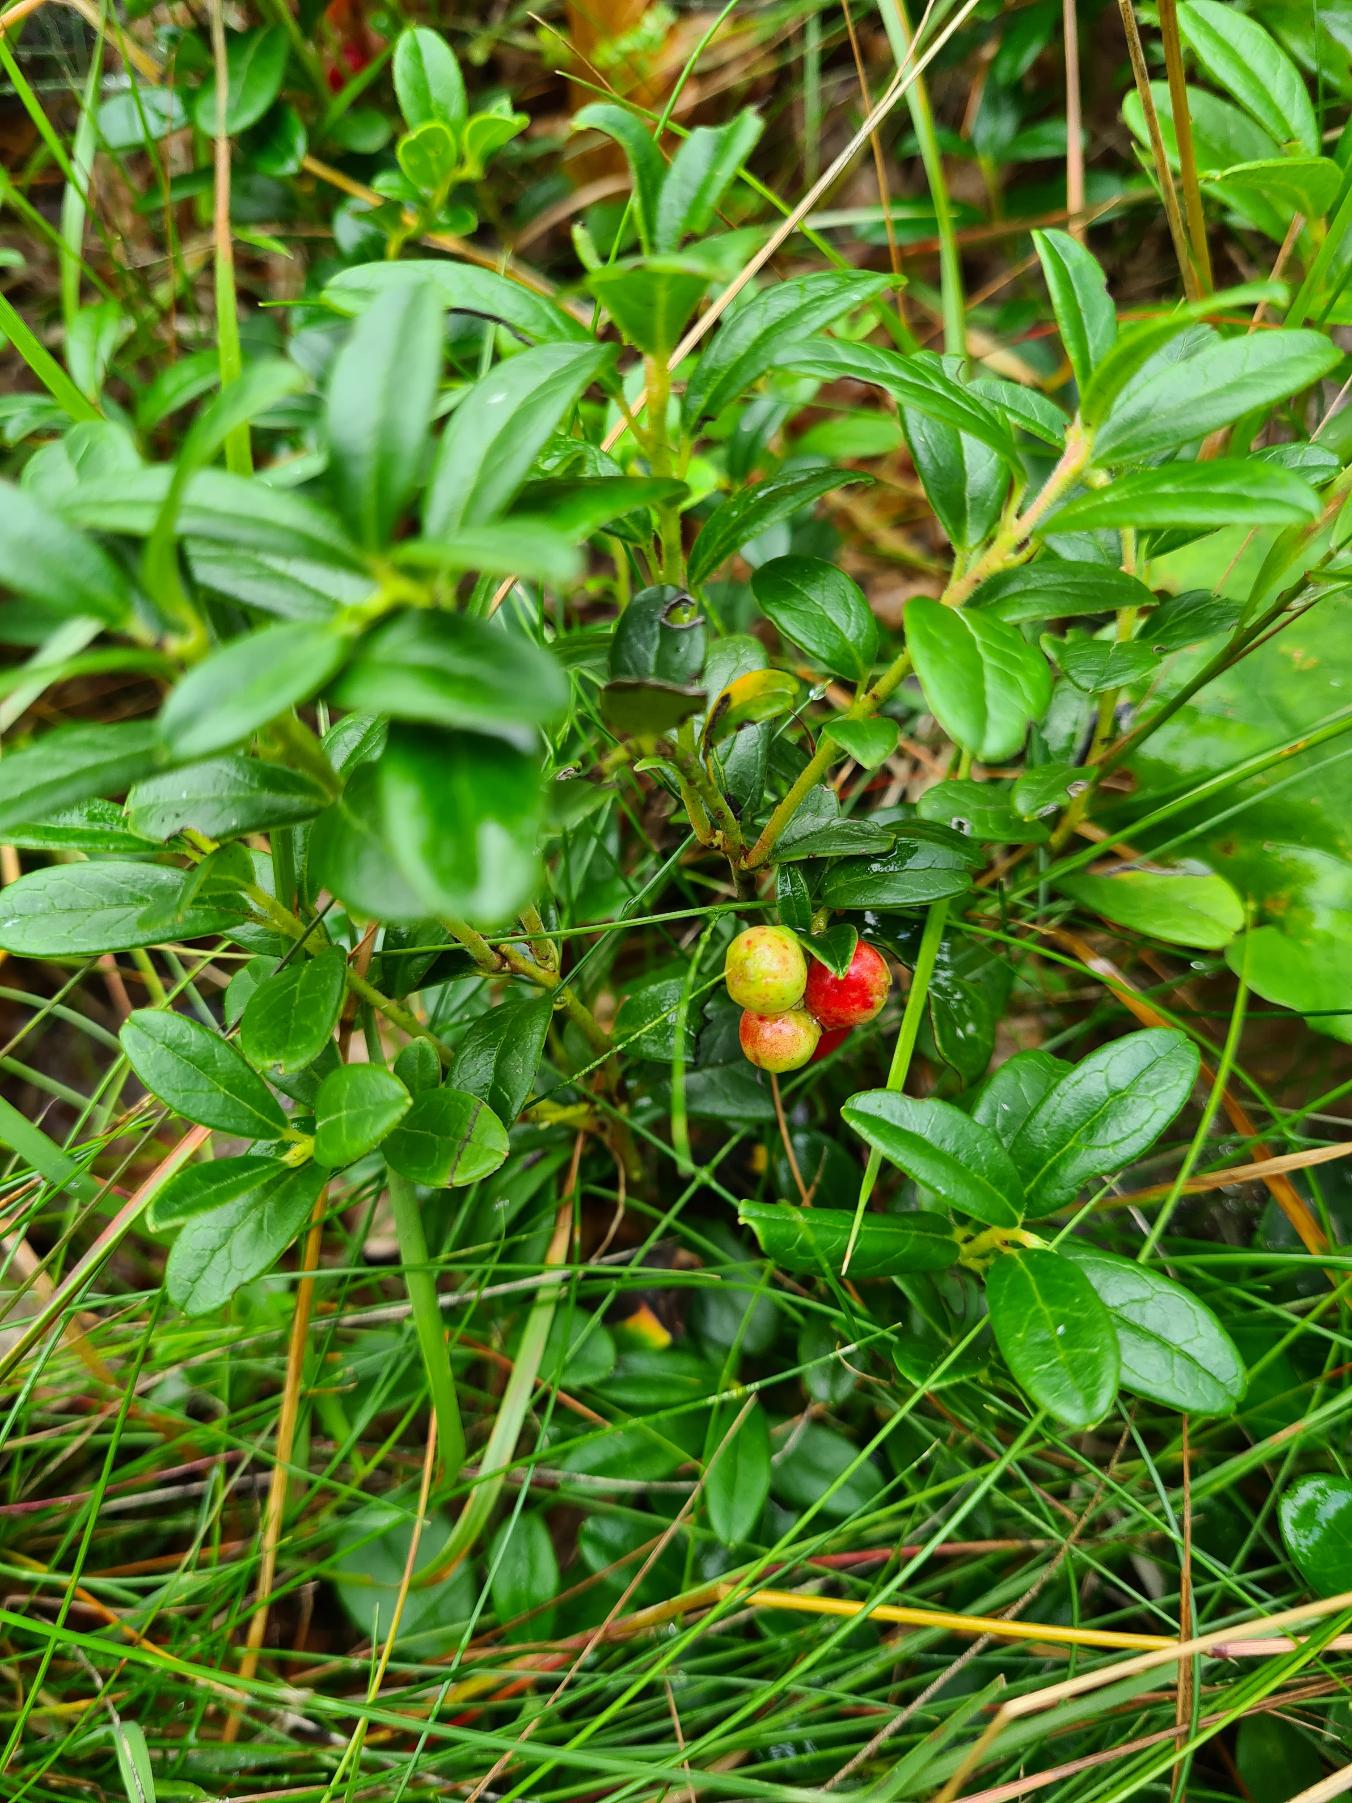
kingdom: Plantae
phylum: Tracheophyta
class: Magnoliopsida
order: Ericales
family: Ericaceae
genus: Vaccinium
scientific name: Vaccinium vitis-idaea
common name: Tyttebær
